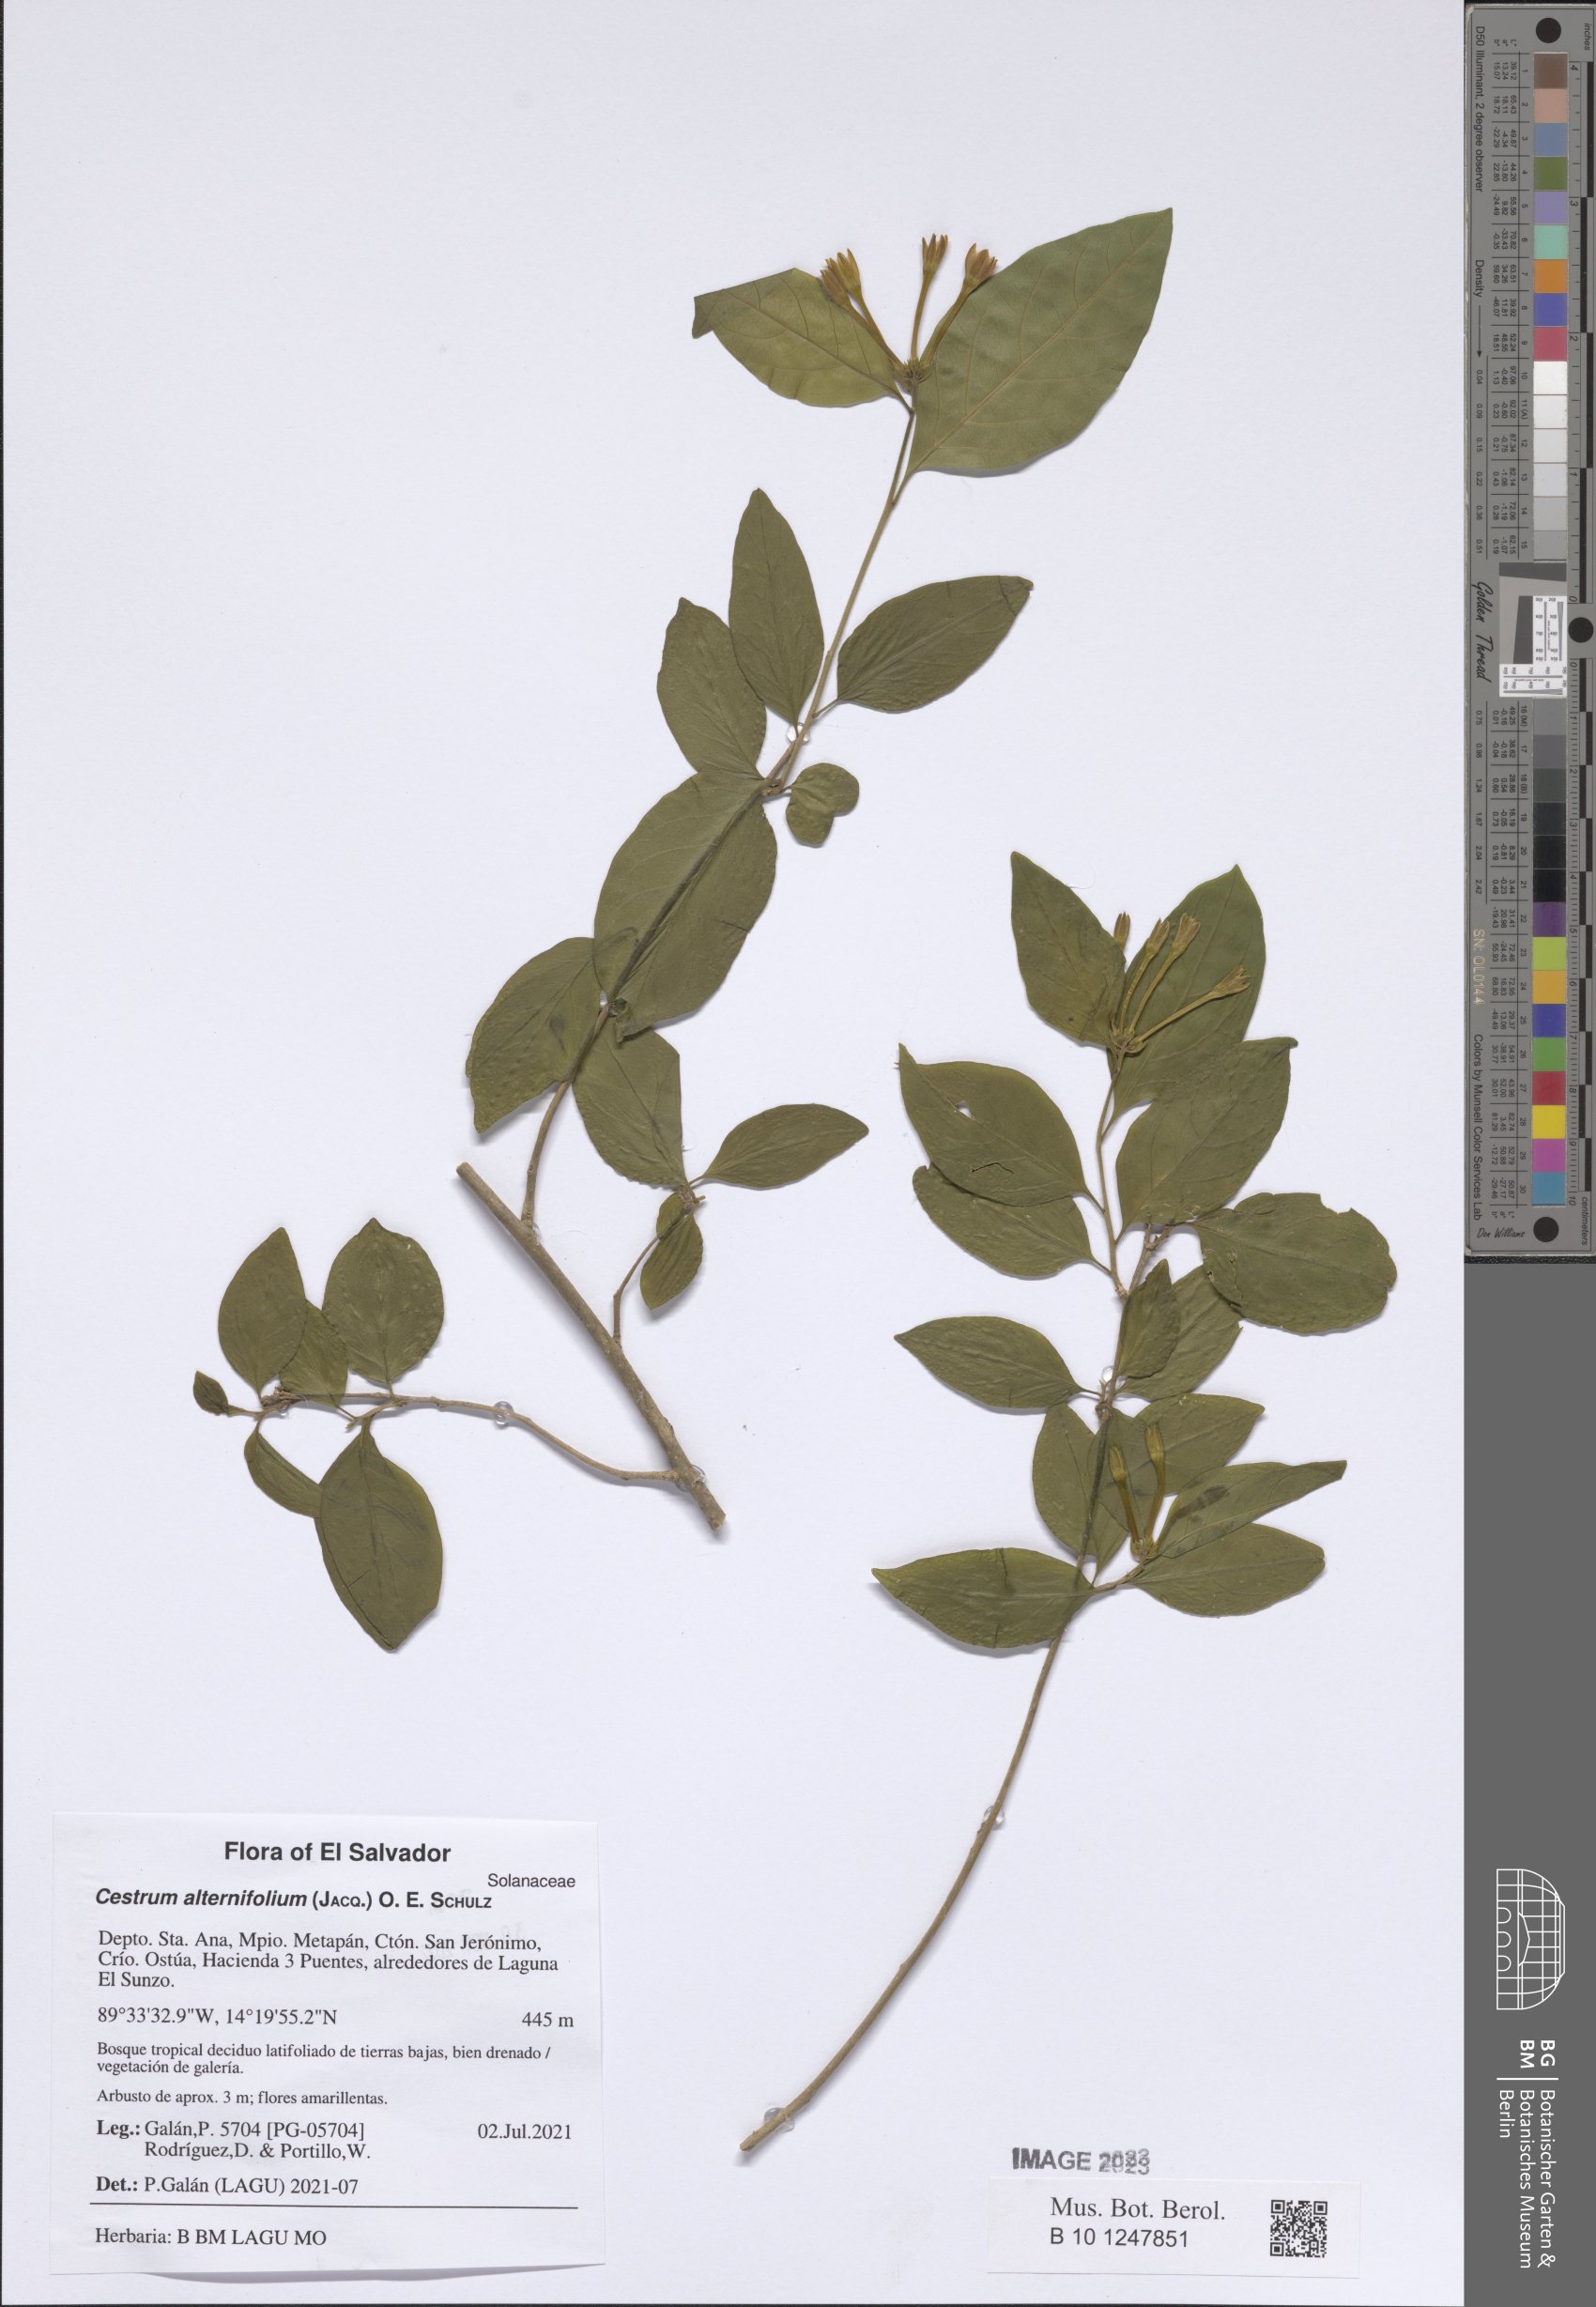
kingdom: Plantae
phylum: Tracheophyta
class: Magnoliopsida
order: Solanales
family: Solanaceae
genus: Cestrum
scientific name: Cestrum alternifolium
